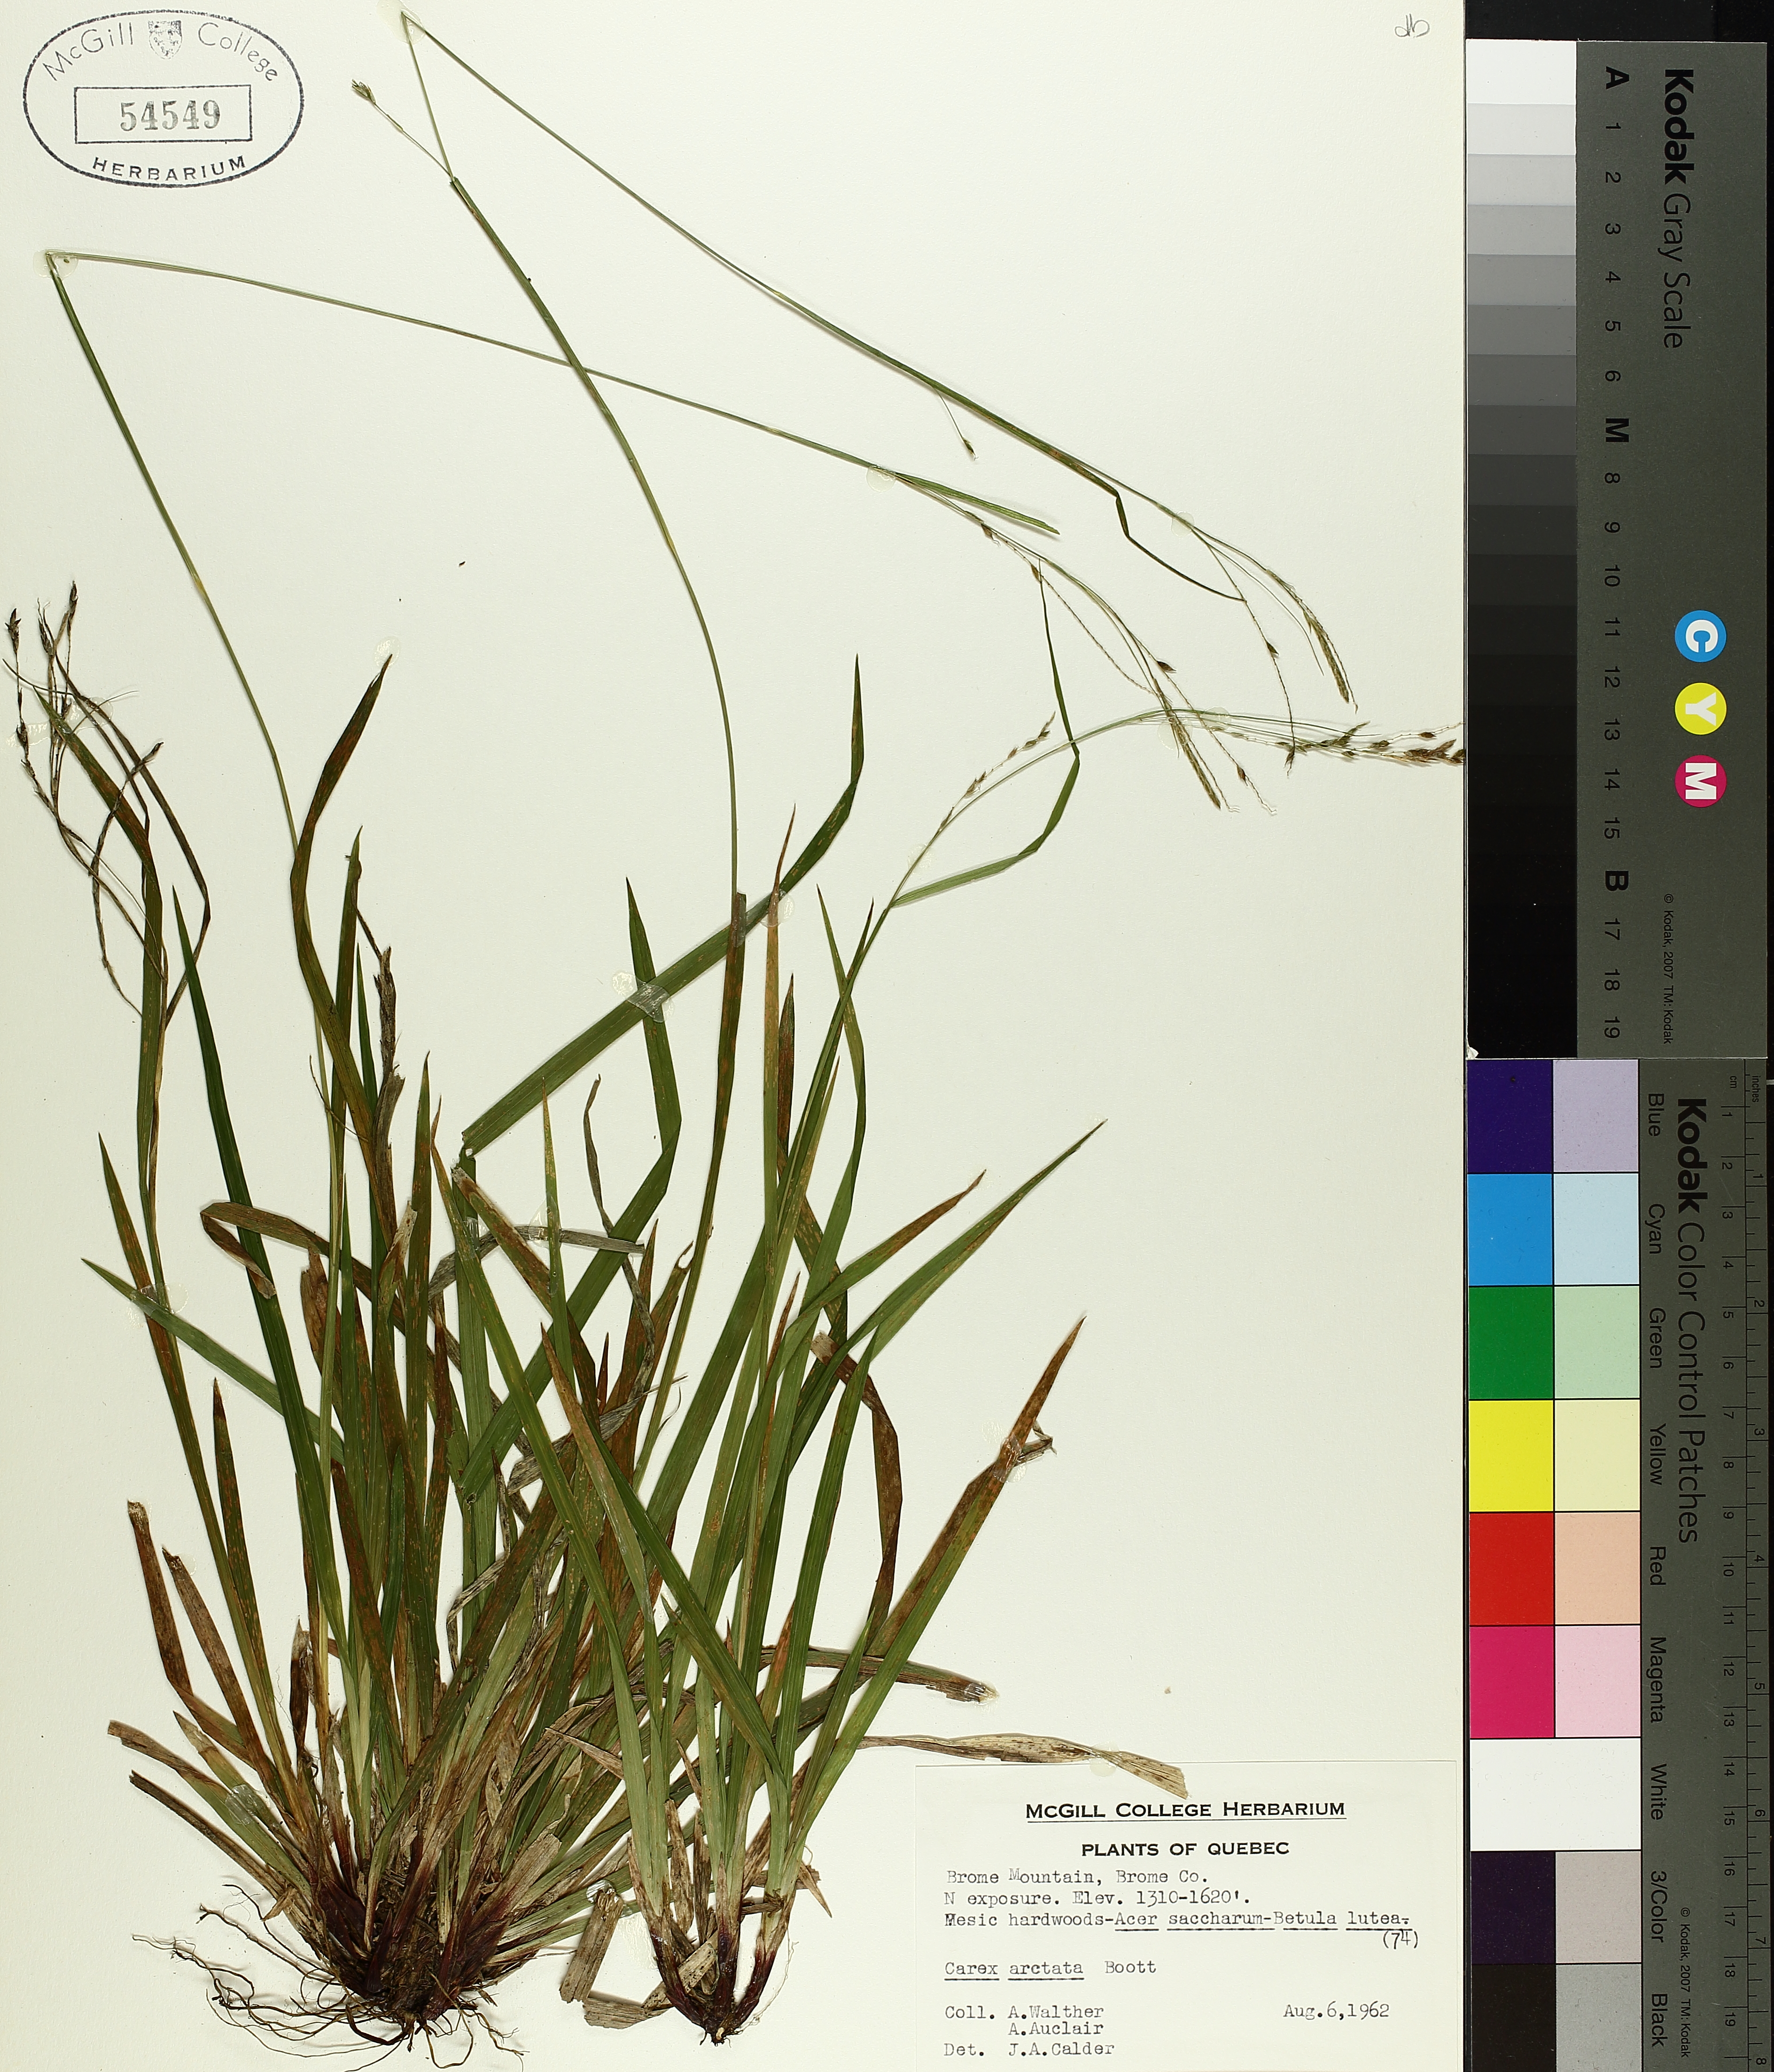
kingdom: Plantae
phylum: Tracheophyta
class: Liliopsida
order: Poales
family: Cyperaceae
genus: Carex
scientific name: Carex arctata
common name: Black sedge
